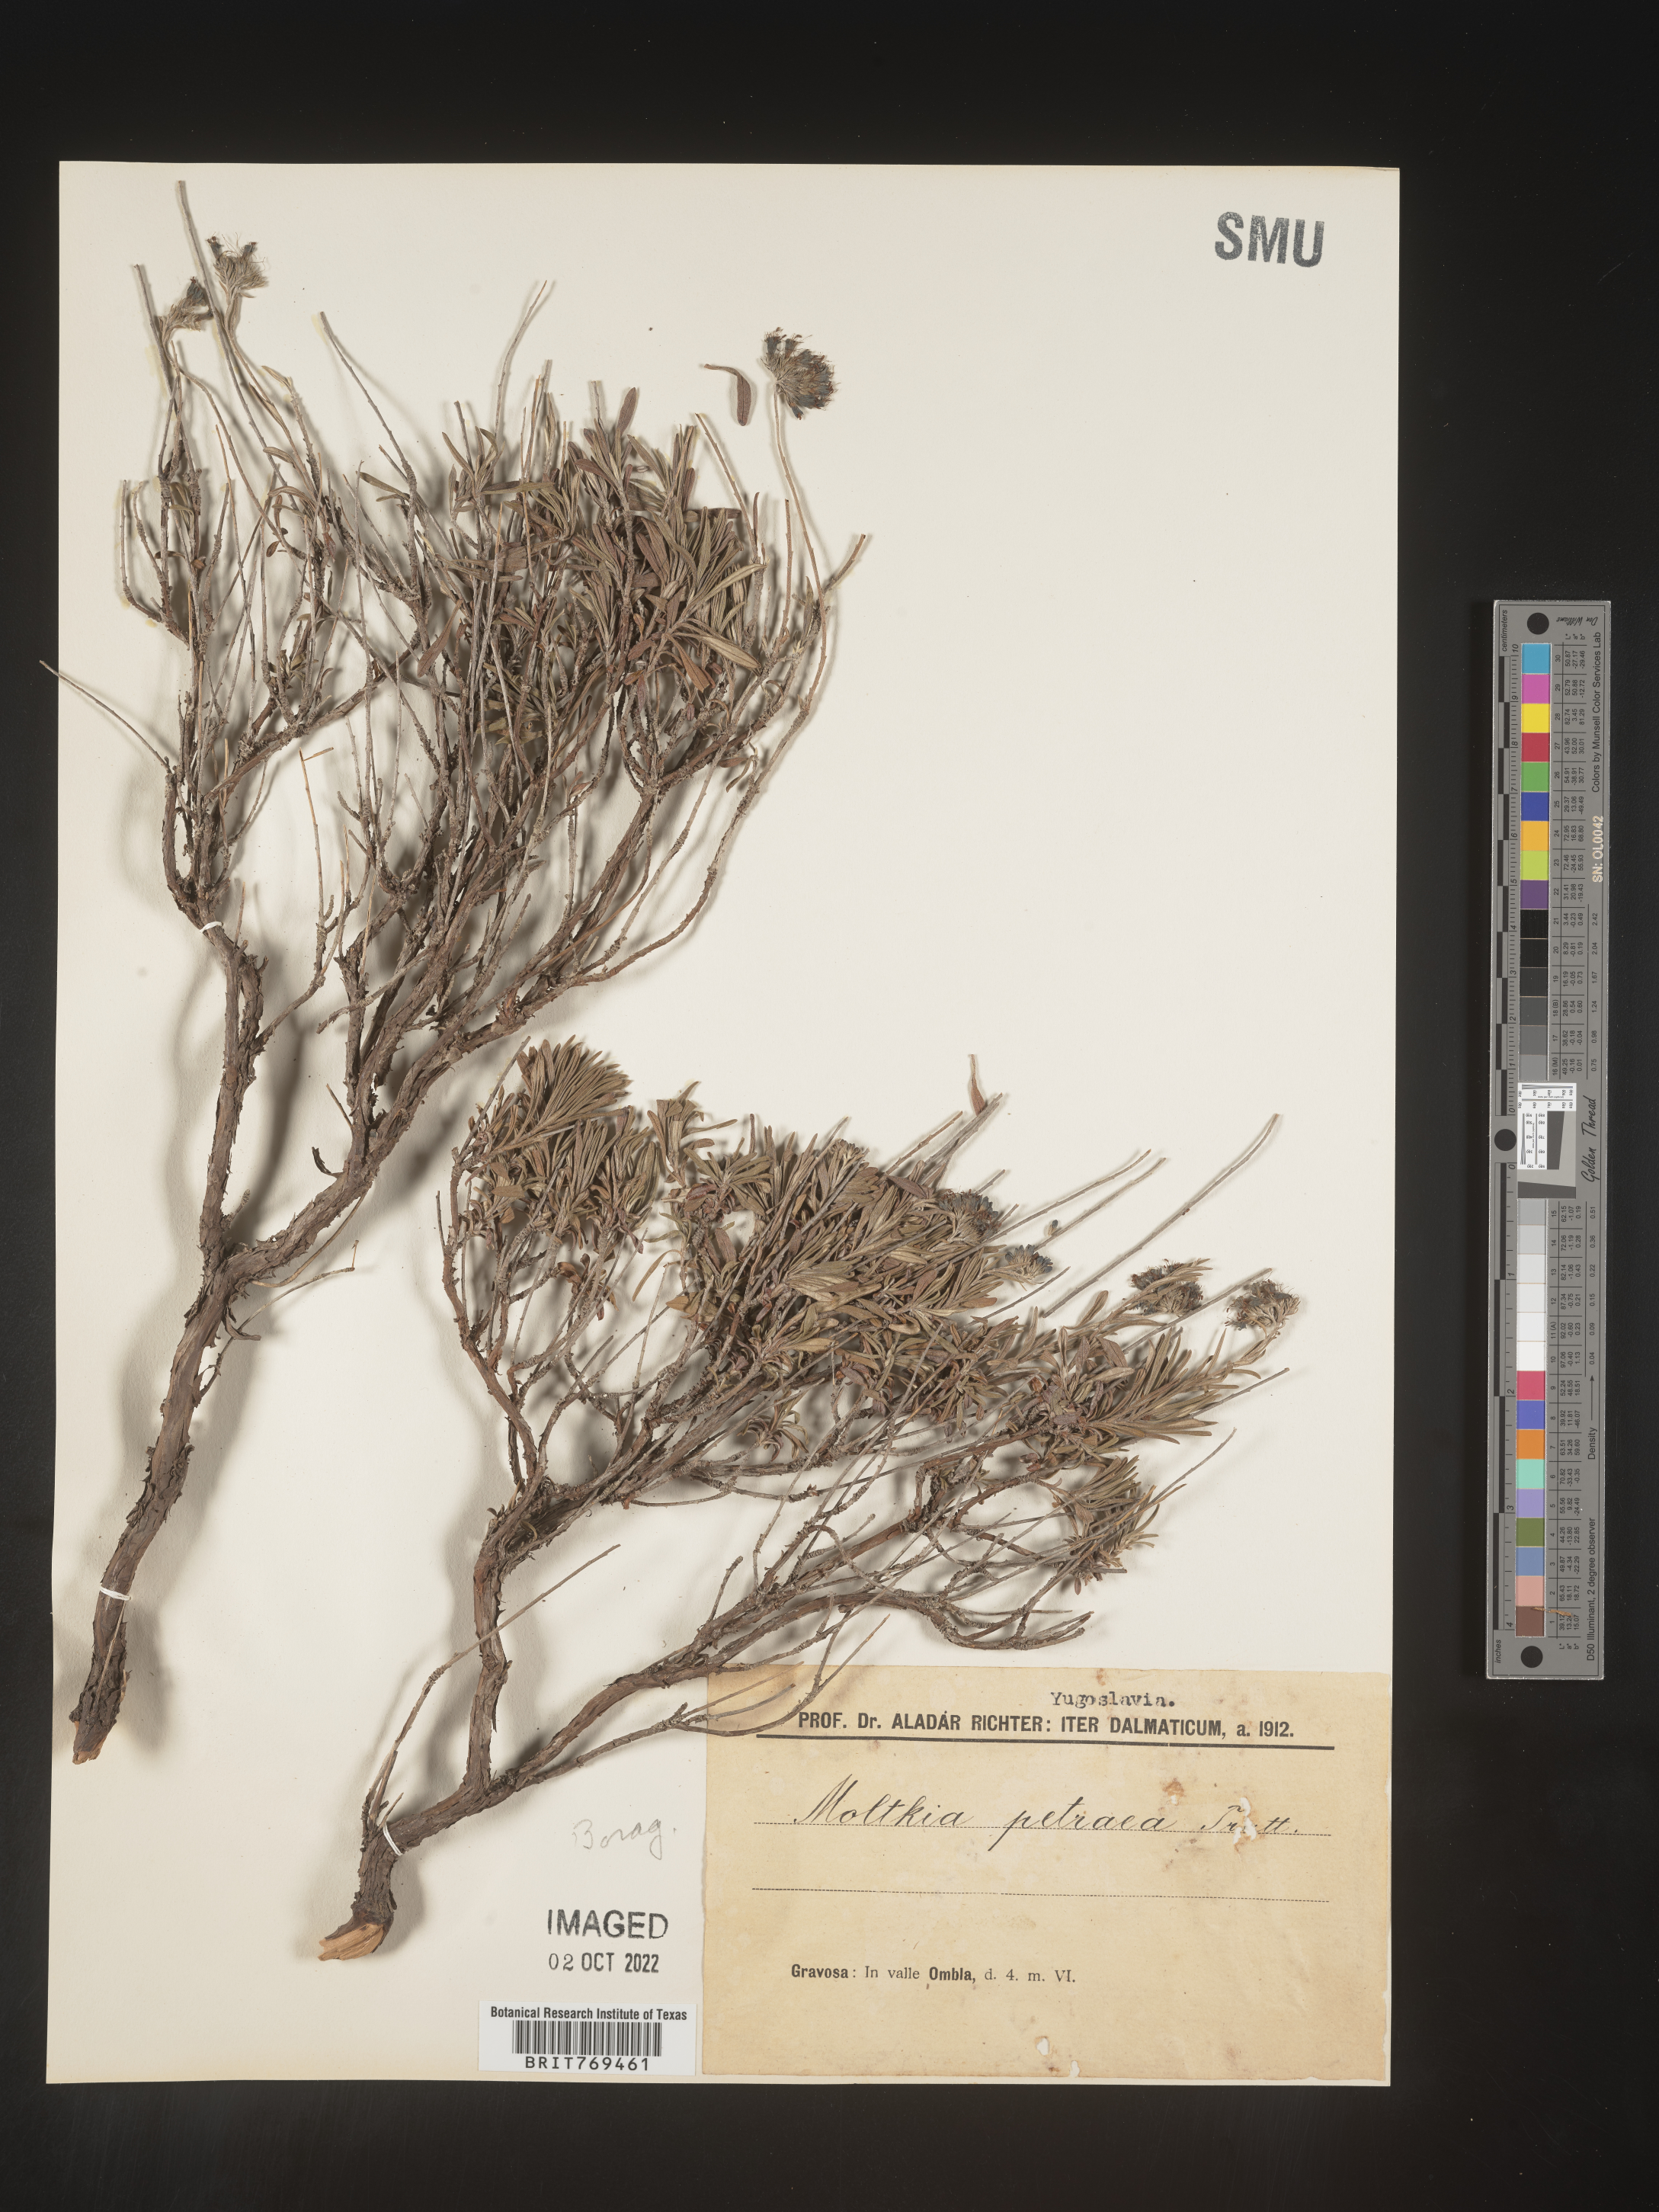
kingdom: Plantae
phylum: Tracheophyta
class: Magnoliopsida
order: Boraginales
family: Boraginaceae
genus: Moltkia
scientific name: Moltkia
